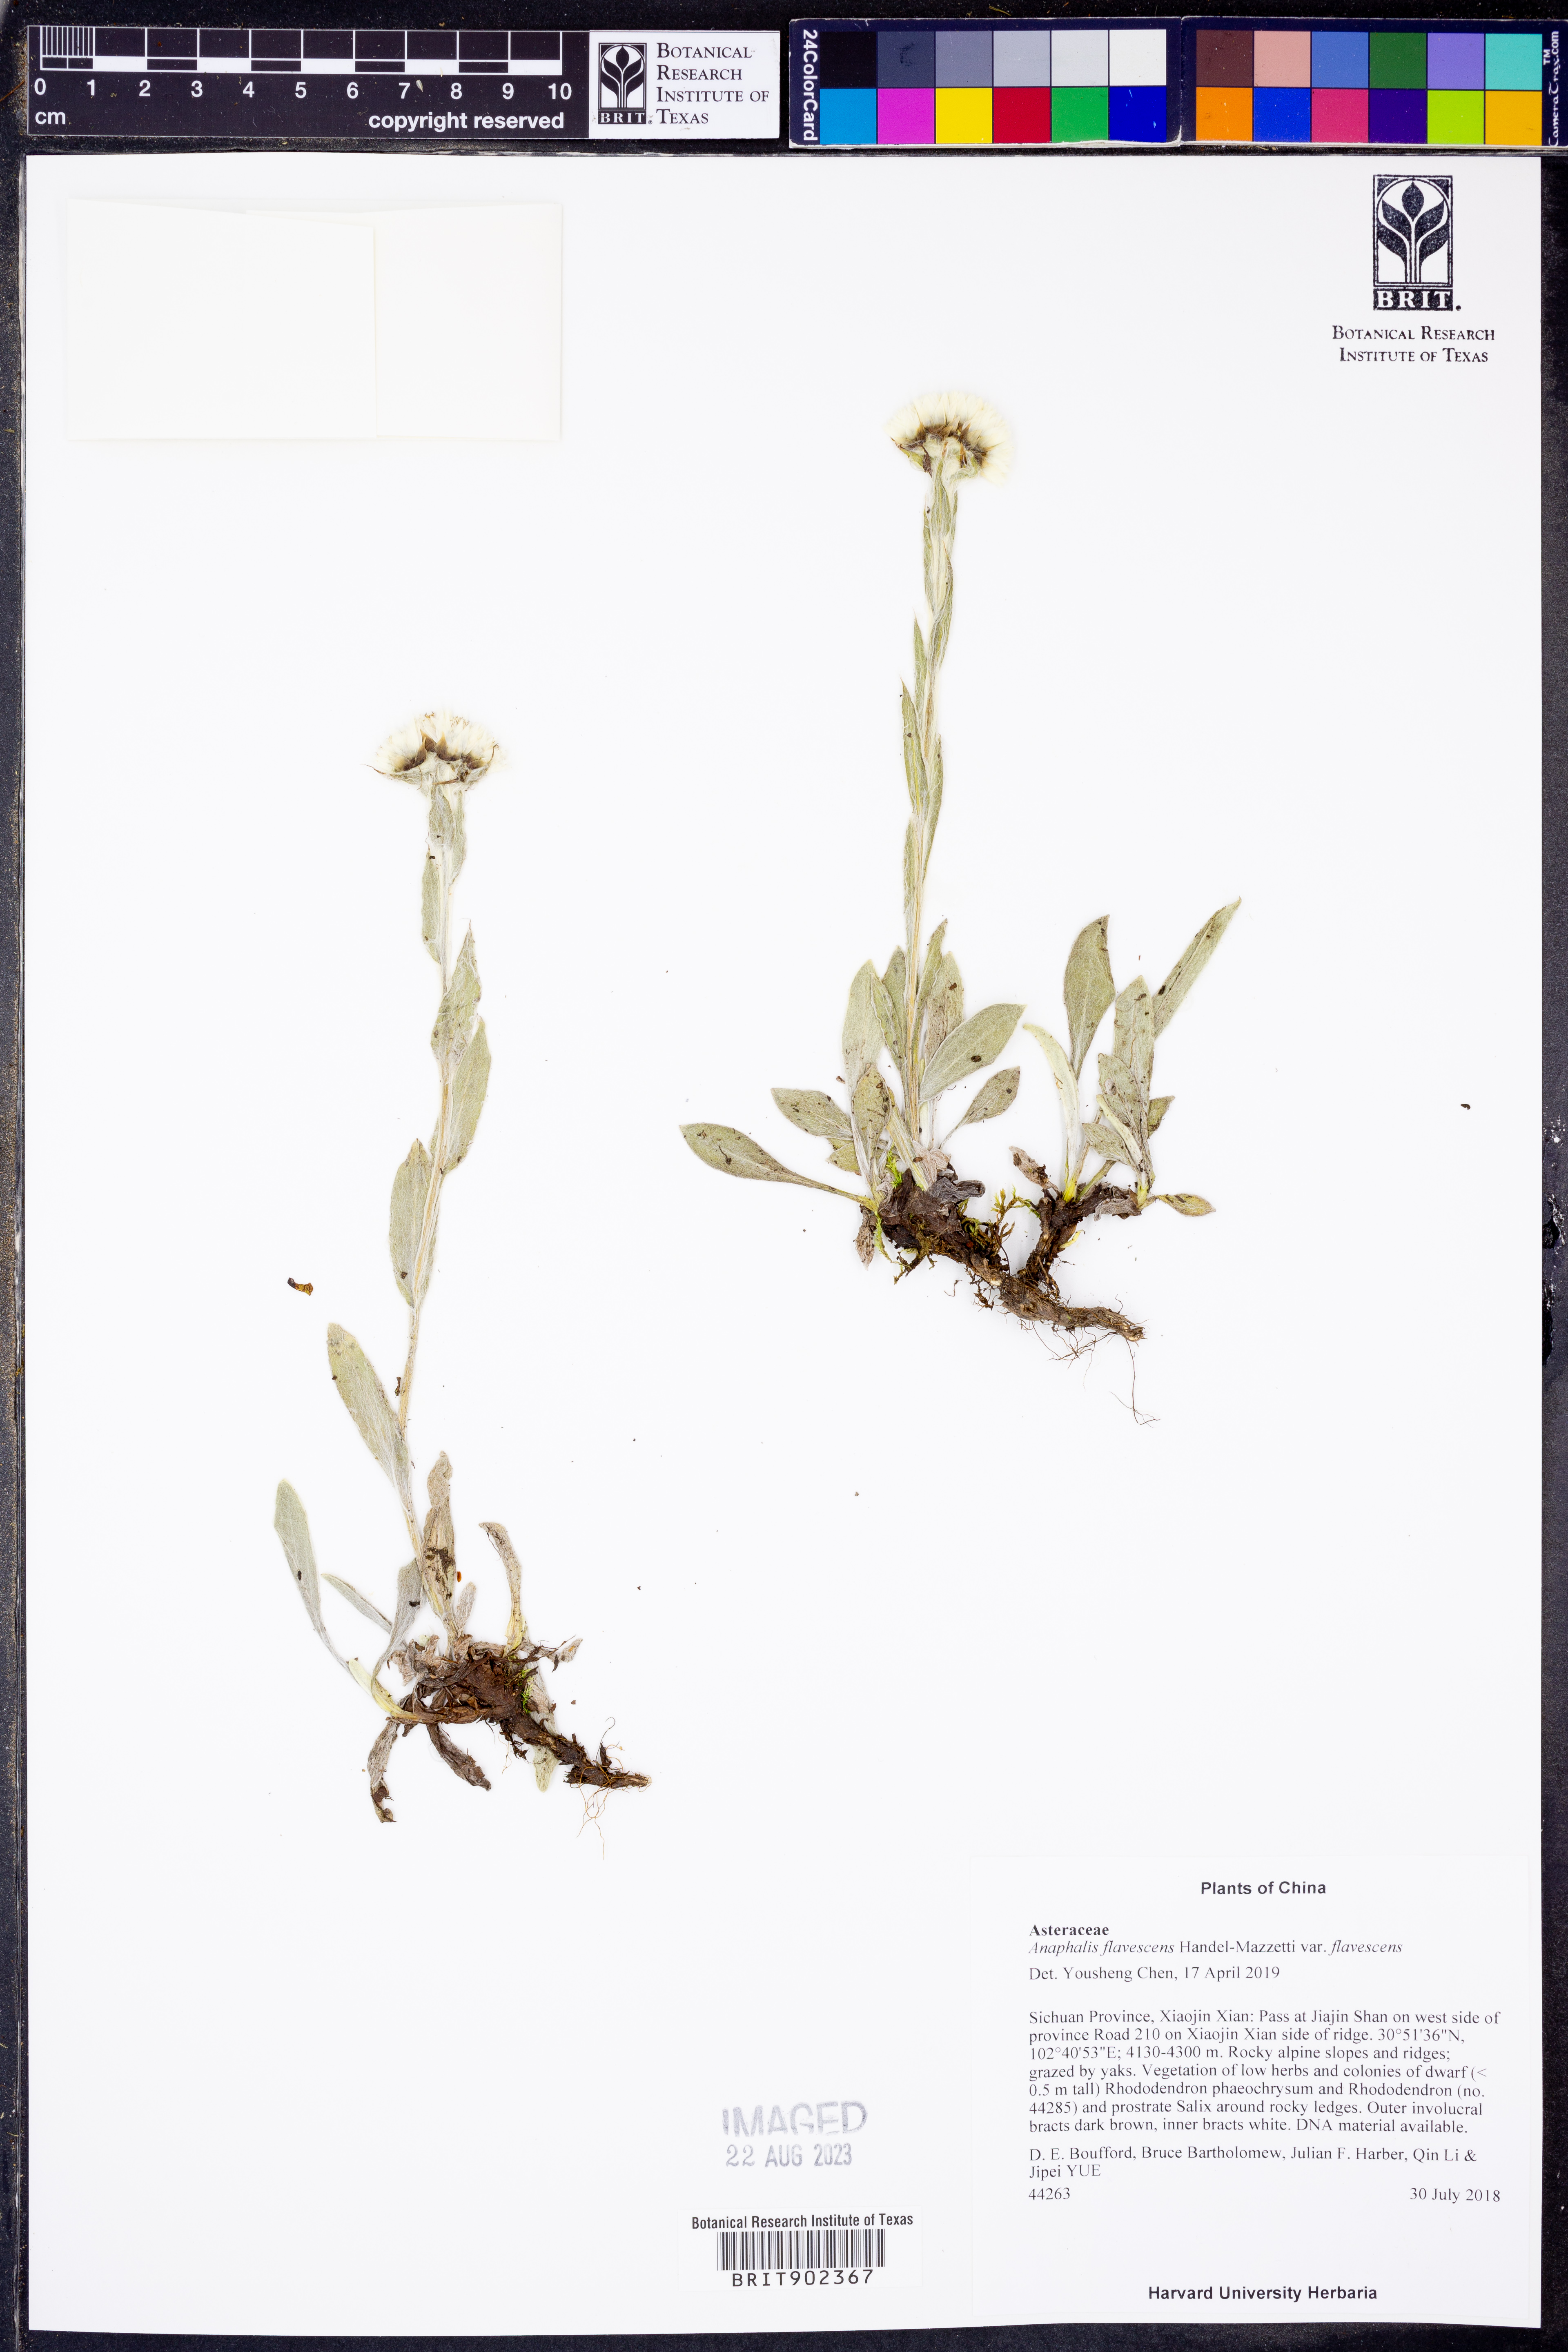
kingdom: Plantae
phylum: Tracheophyta
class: Magnoliopsida
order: Asterales
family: Asteraceae
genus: Anaphalis
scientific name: Anaphalis flavescens
